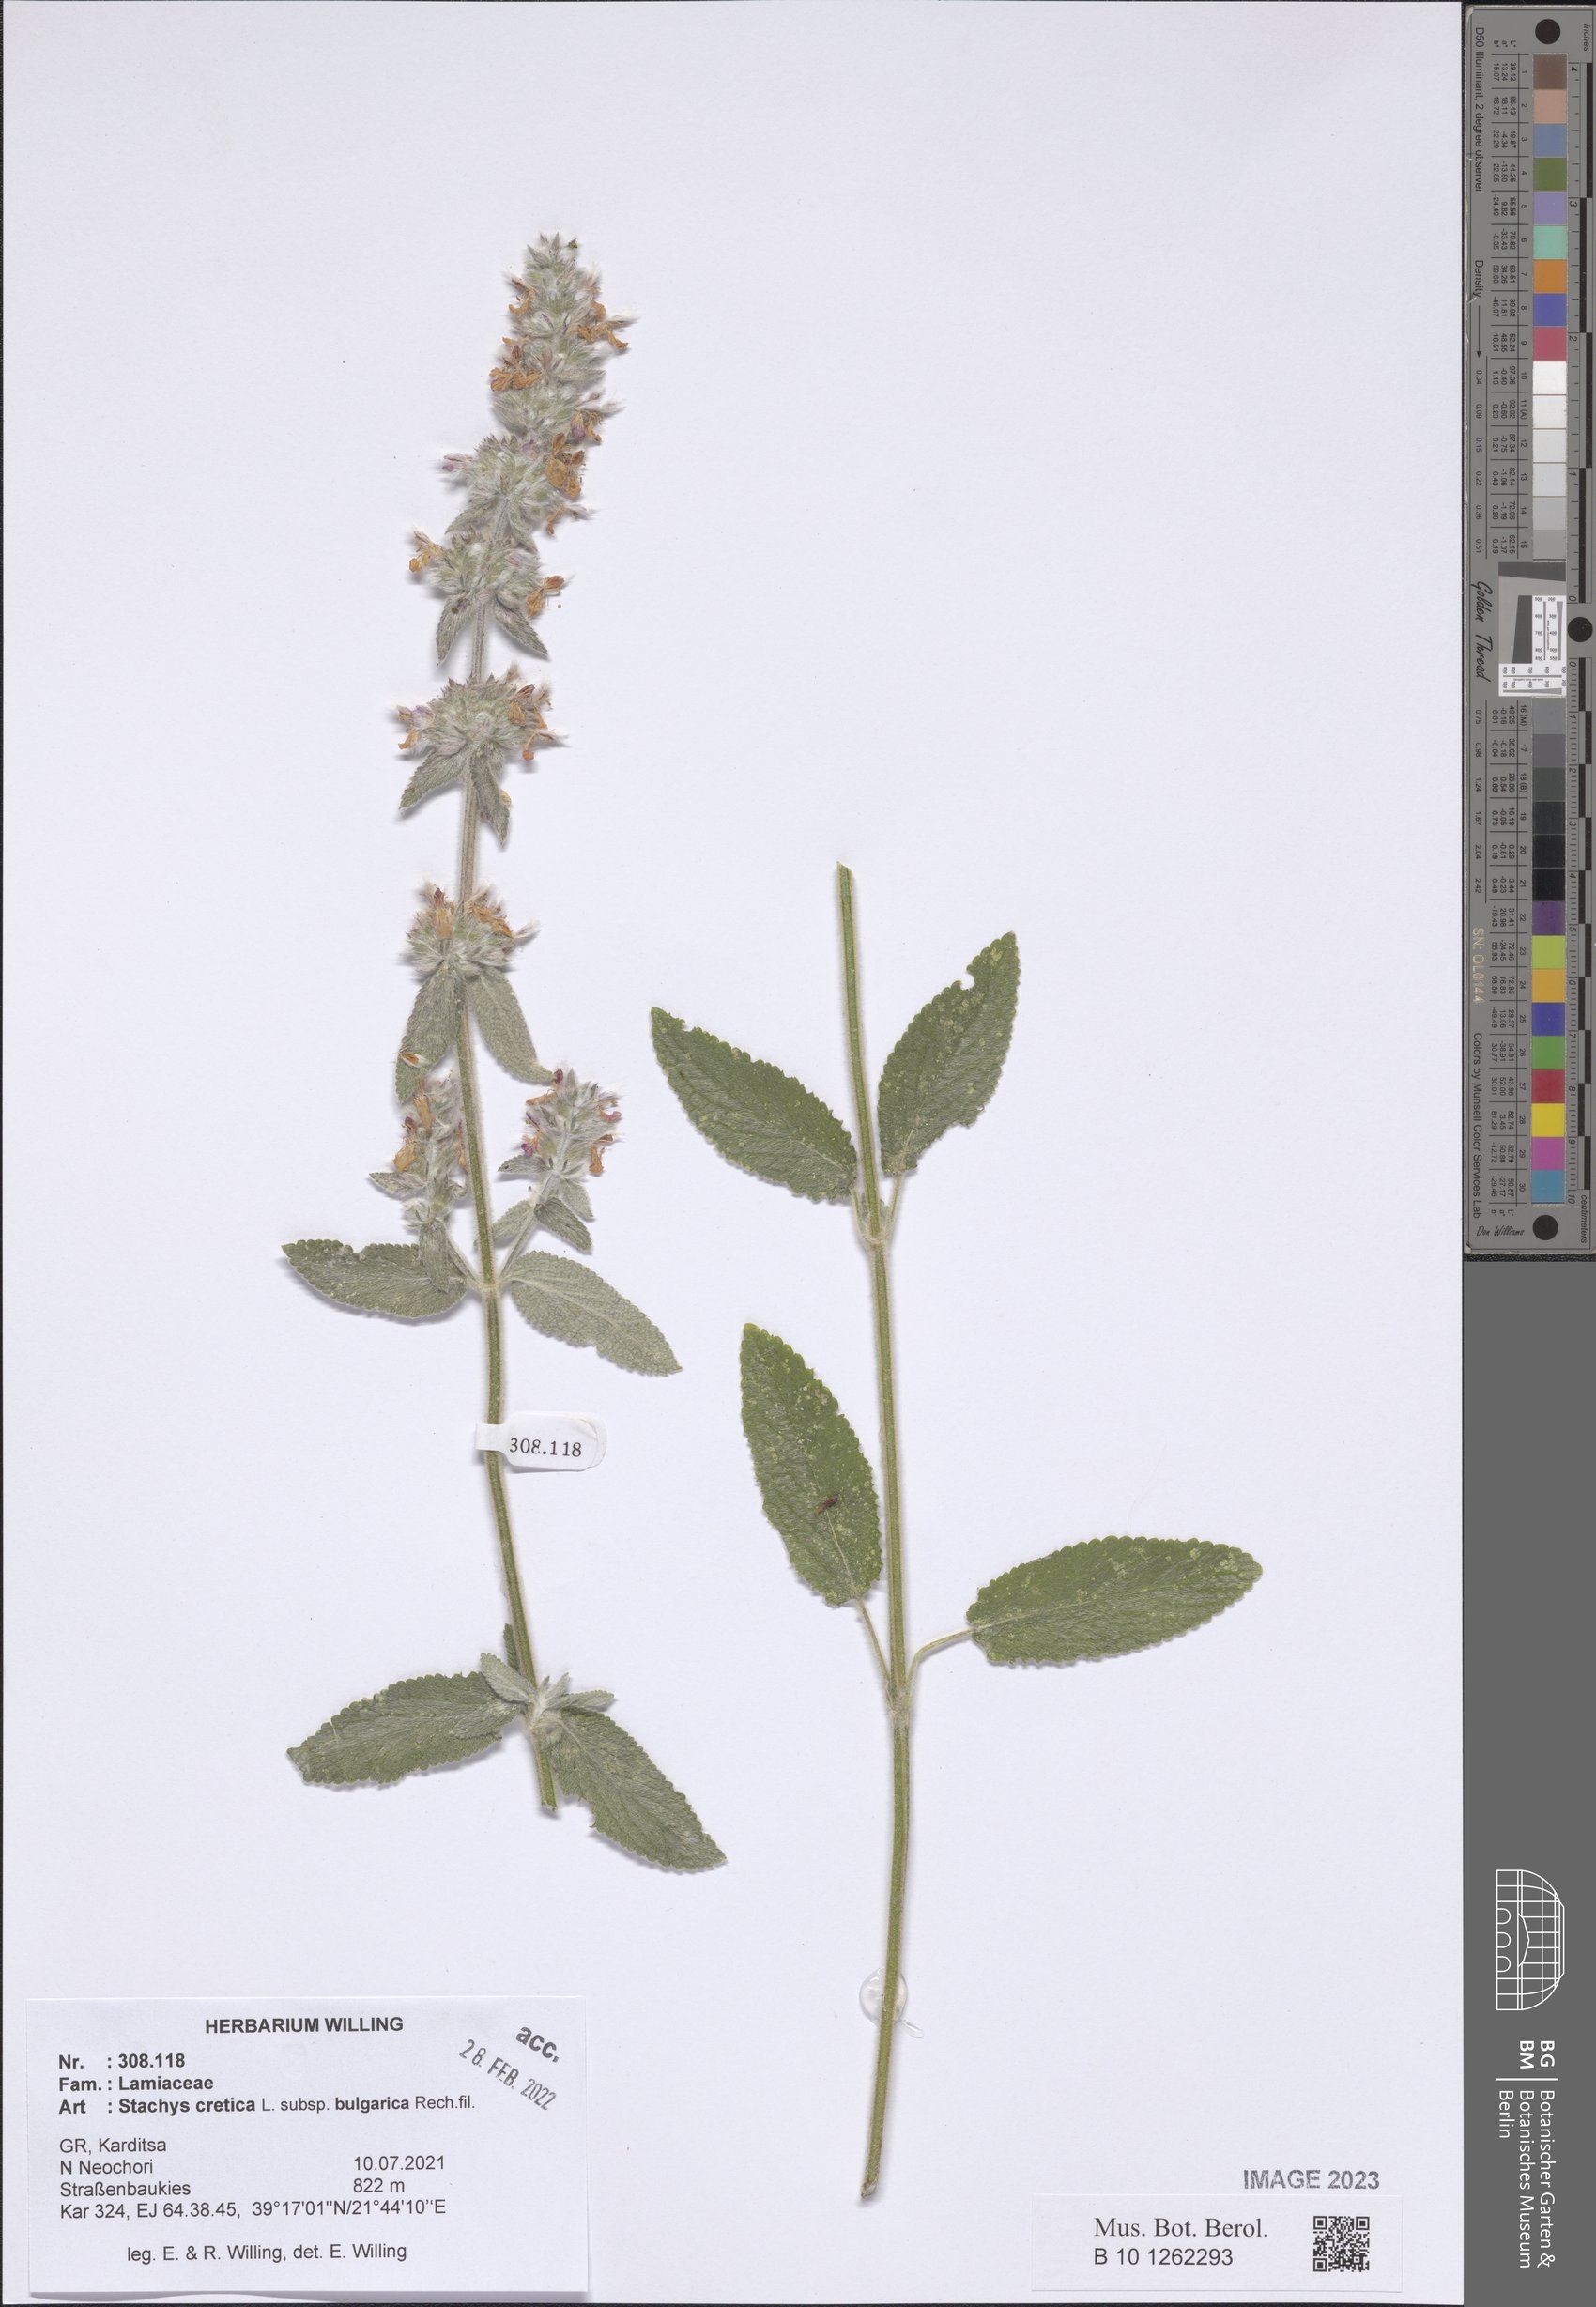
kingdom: Plantae
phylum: Tracheophyta
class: Magnoliopsida
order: Lamiales
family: Lamiaceae
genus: Stachys
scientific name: Stachys cretica
